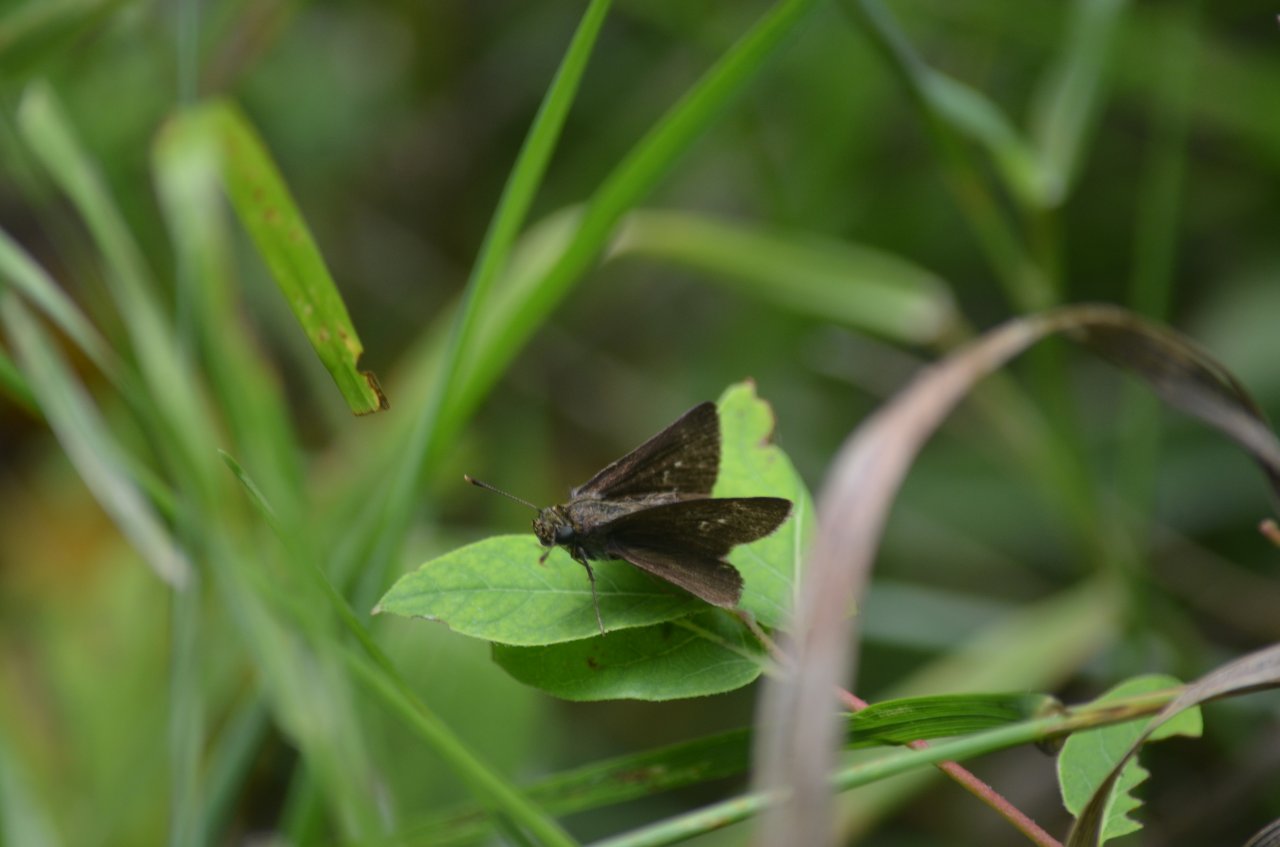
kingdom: Animalia
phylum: Arthropoda
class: Insecta
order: Lepidoptera
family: Hesperiidae
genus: Euphyes
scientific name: Euphyes vestris
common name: Dun Skipper
